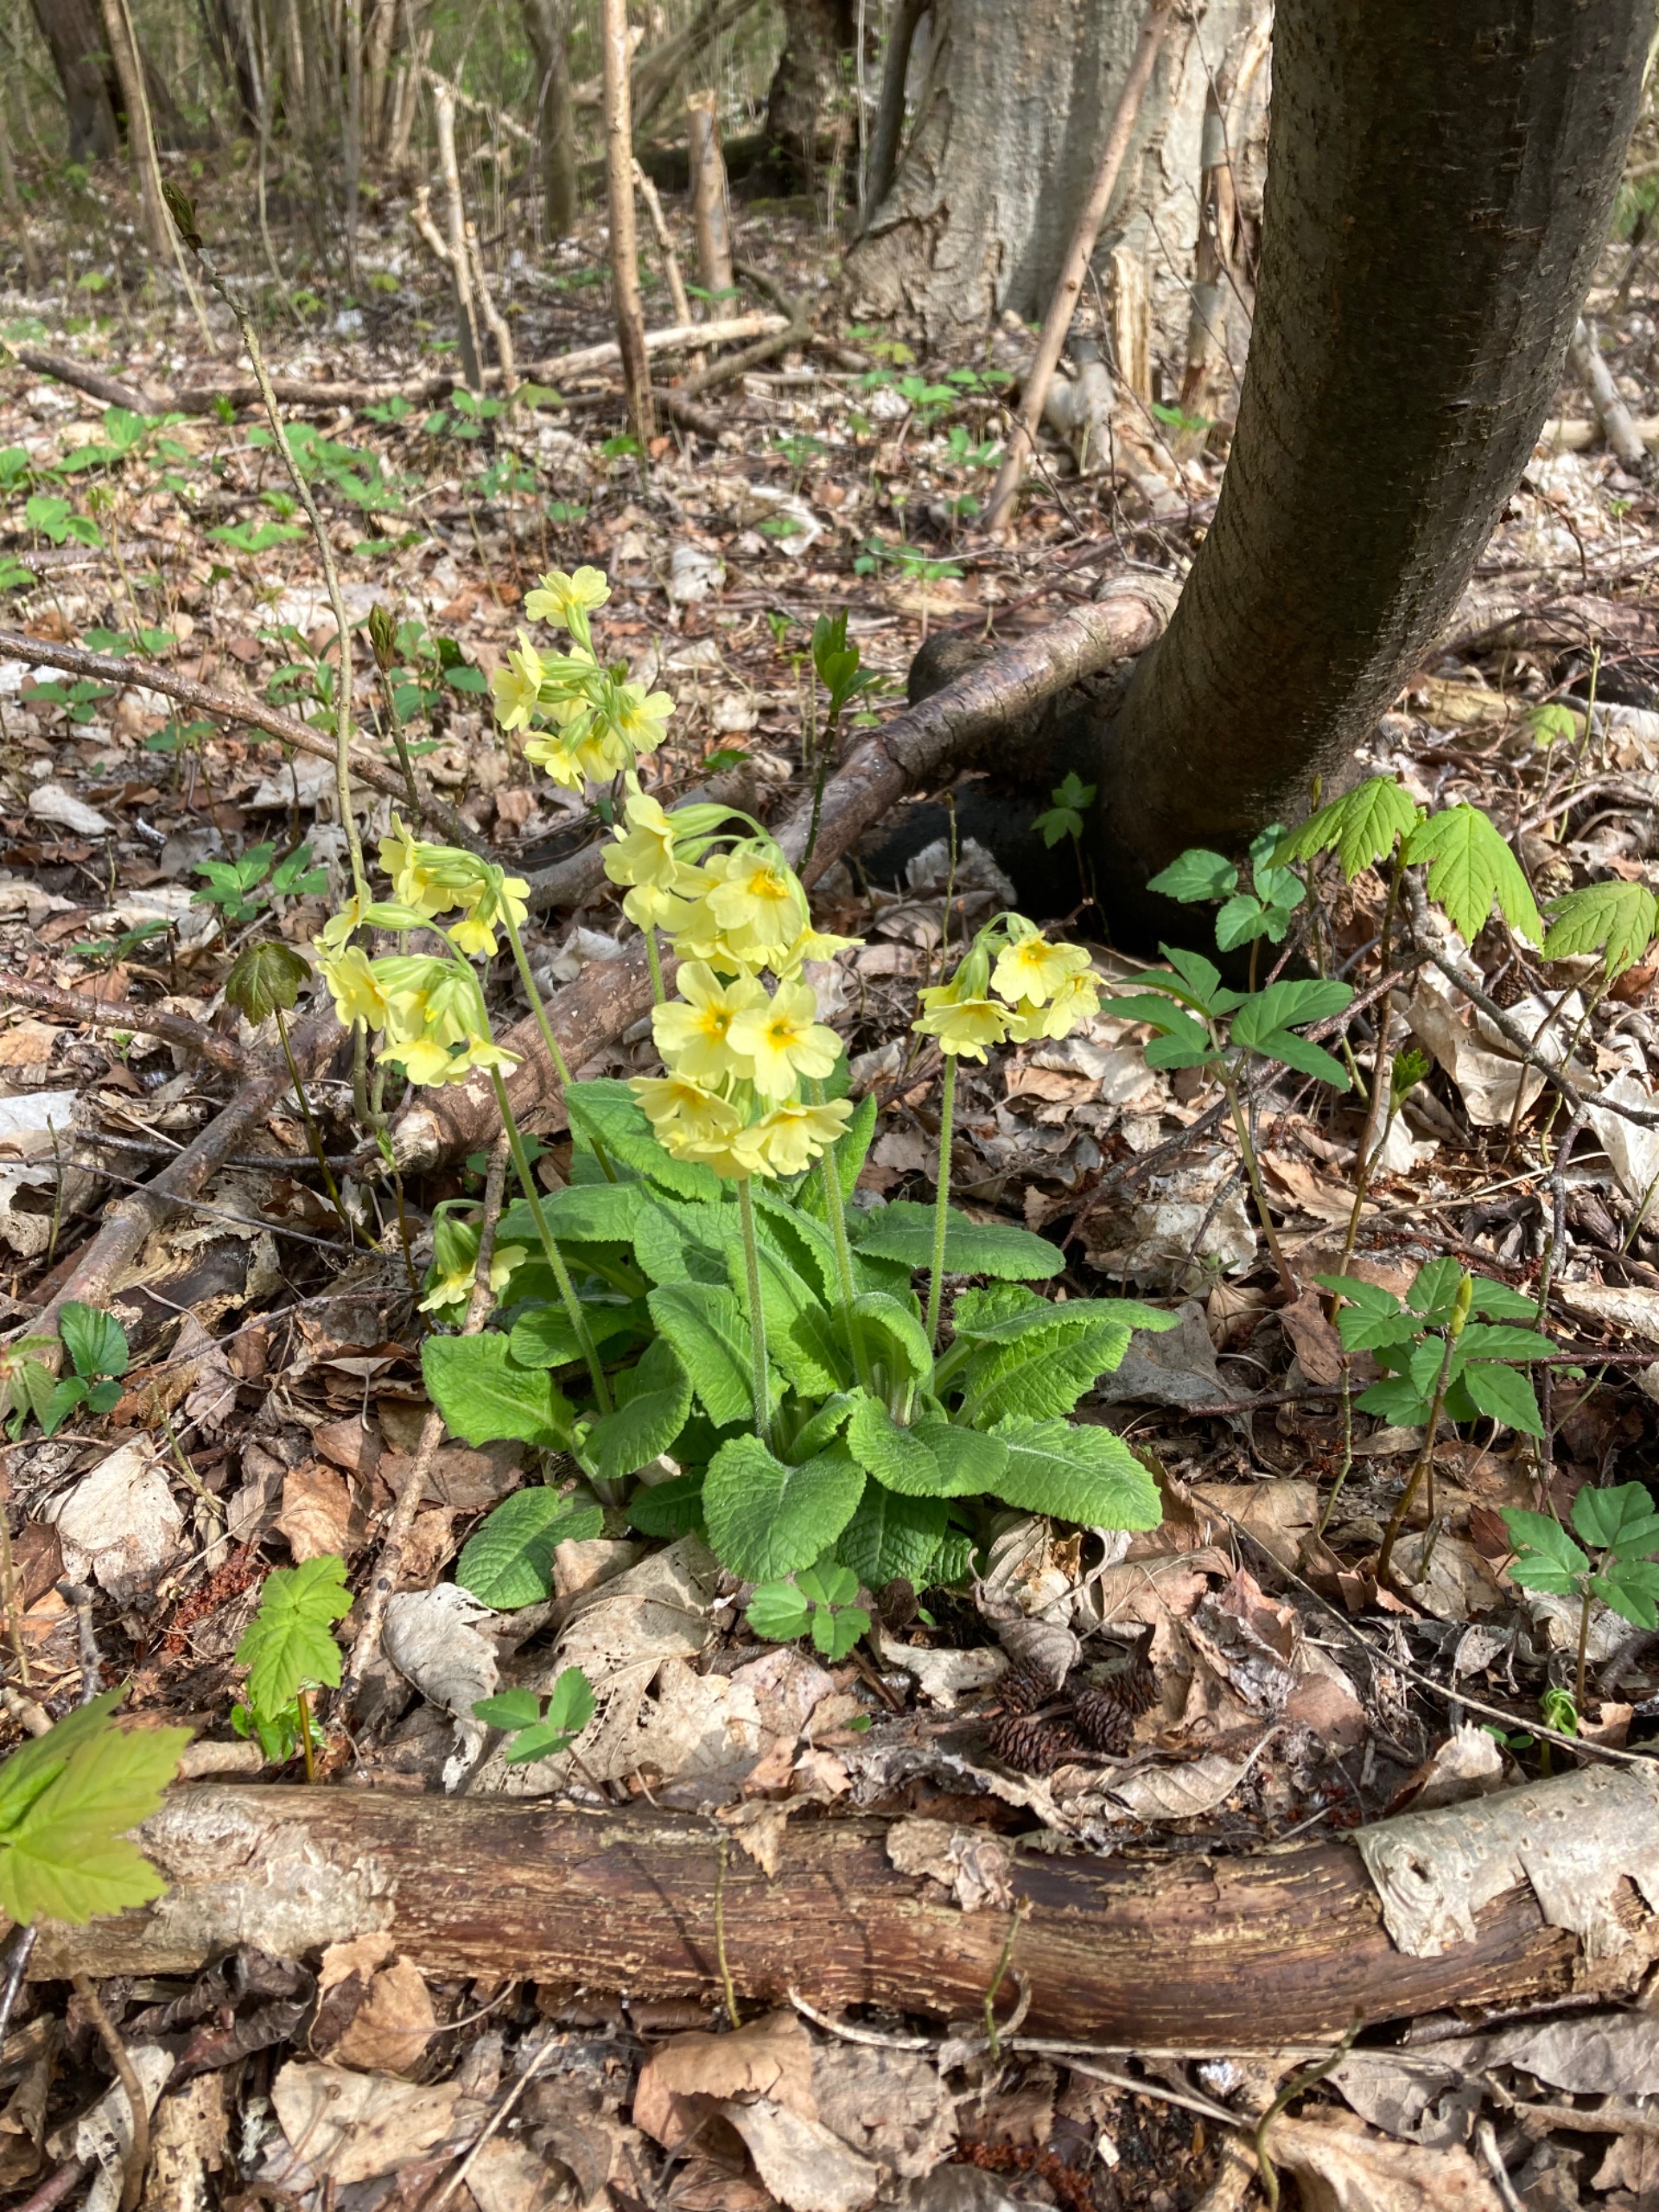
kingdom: Plantae
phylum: Tracheophyta
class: Magnoliopsida
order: Ericales
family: Primulaceae
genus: Primula
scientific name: Primula elatior
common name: Fladkravet kodriver
